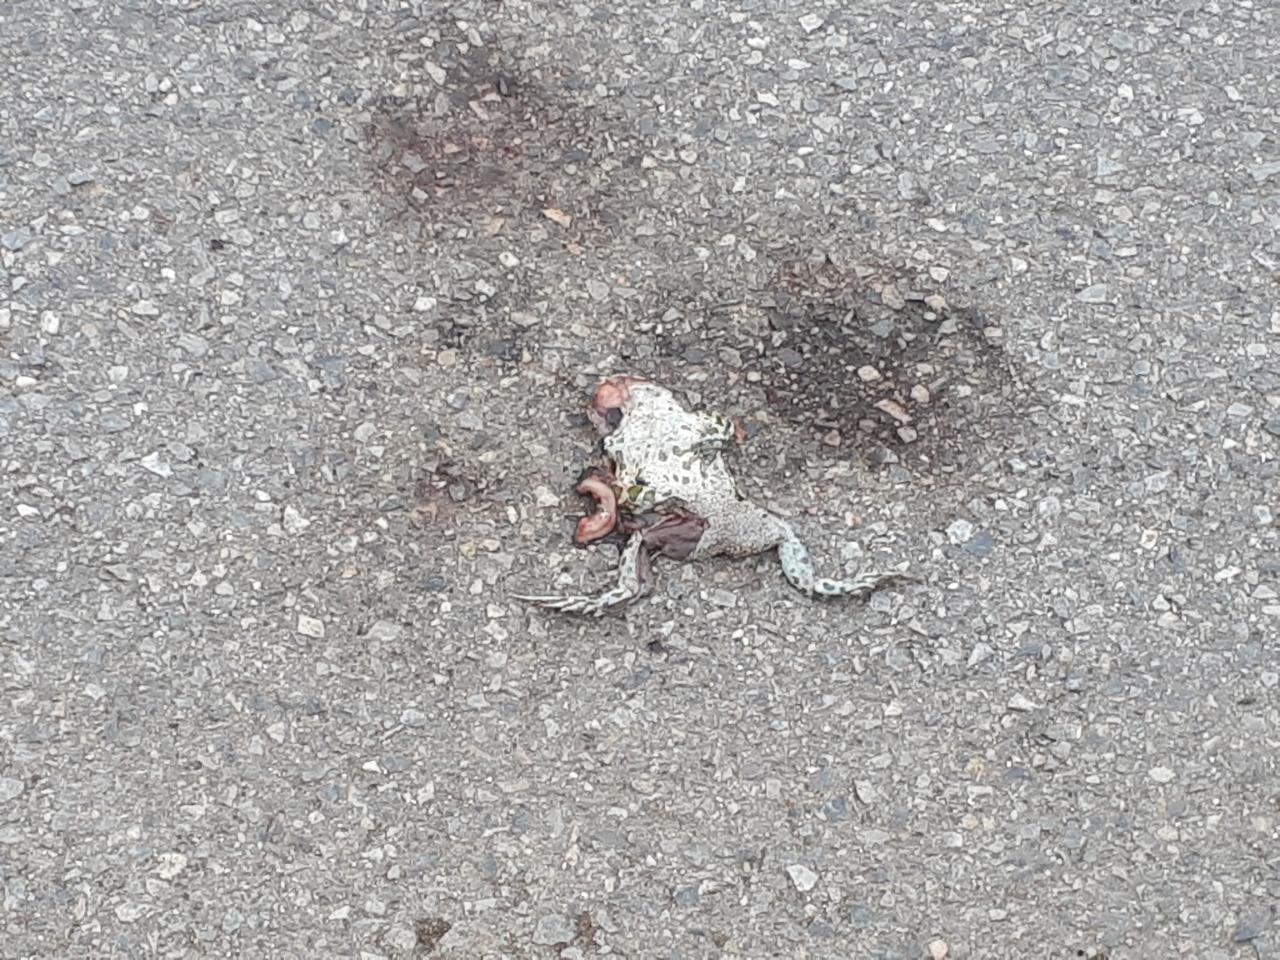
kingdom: Animalia
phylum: Chordata
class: Amphibia
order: Anura
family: Bufonidae
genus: Bufotes
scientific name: Bufotes viridis
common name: European green toad
